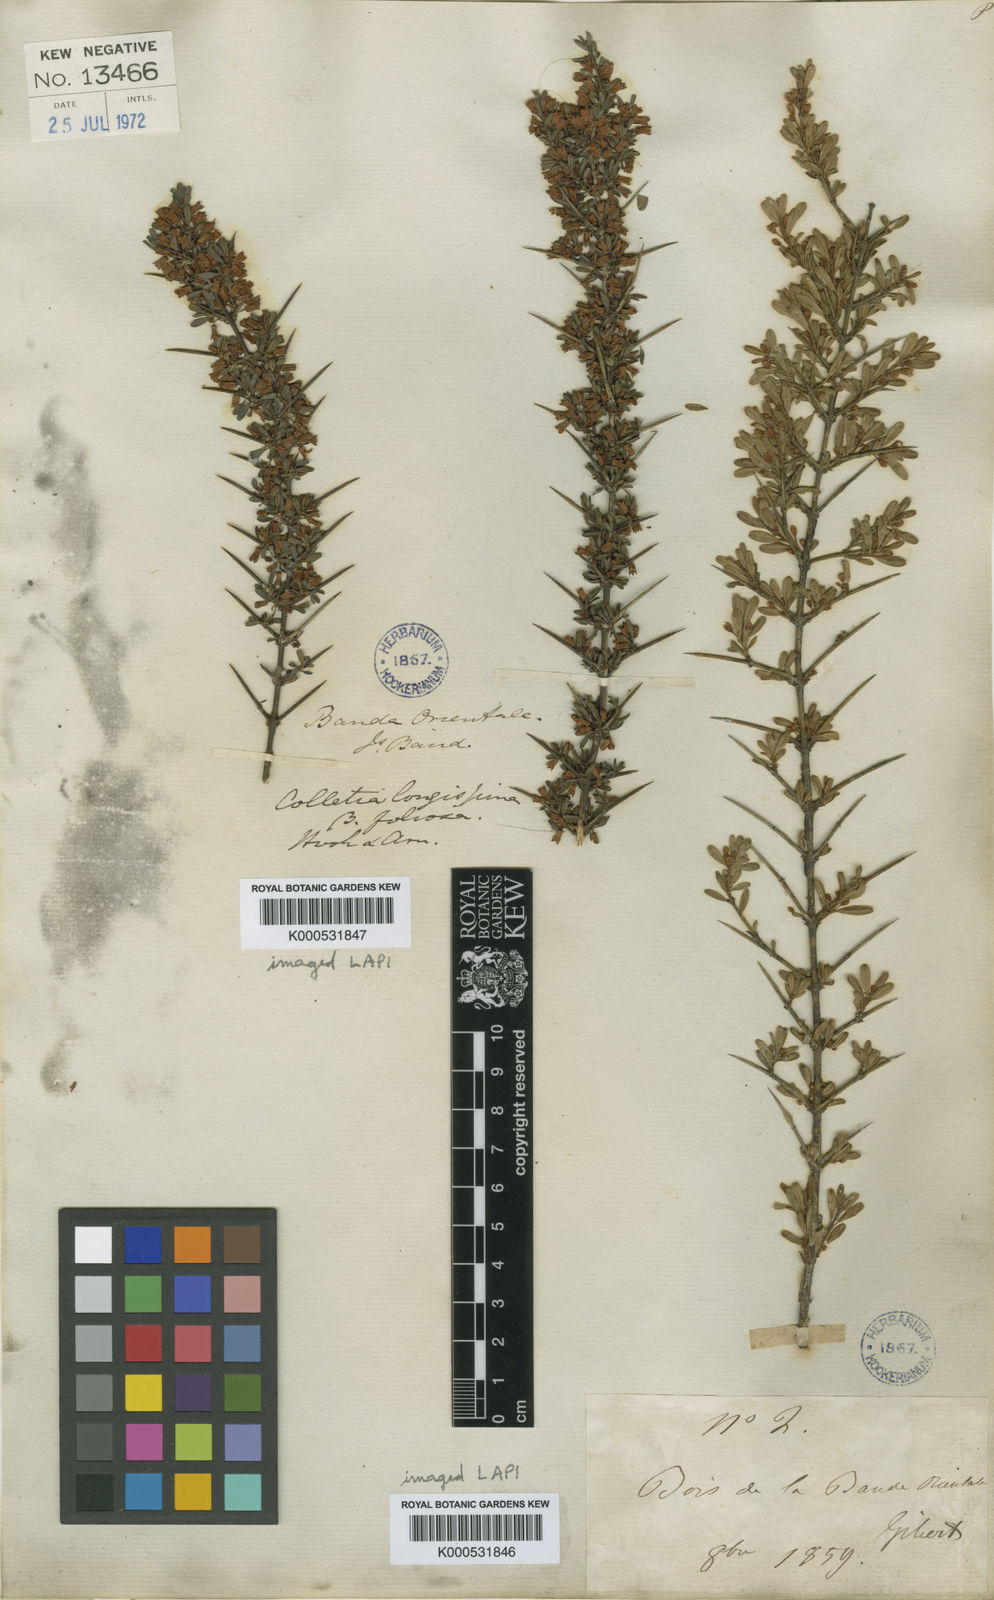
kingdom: Plantae
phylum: Tracheophyta
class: Magnoliopsida
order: Rosales
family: Rhamnaceae
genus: Discaria
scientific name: Discaria americana
